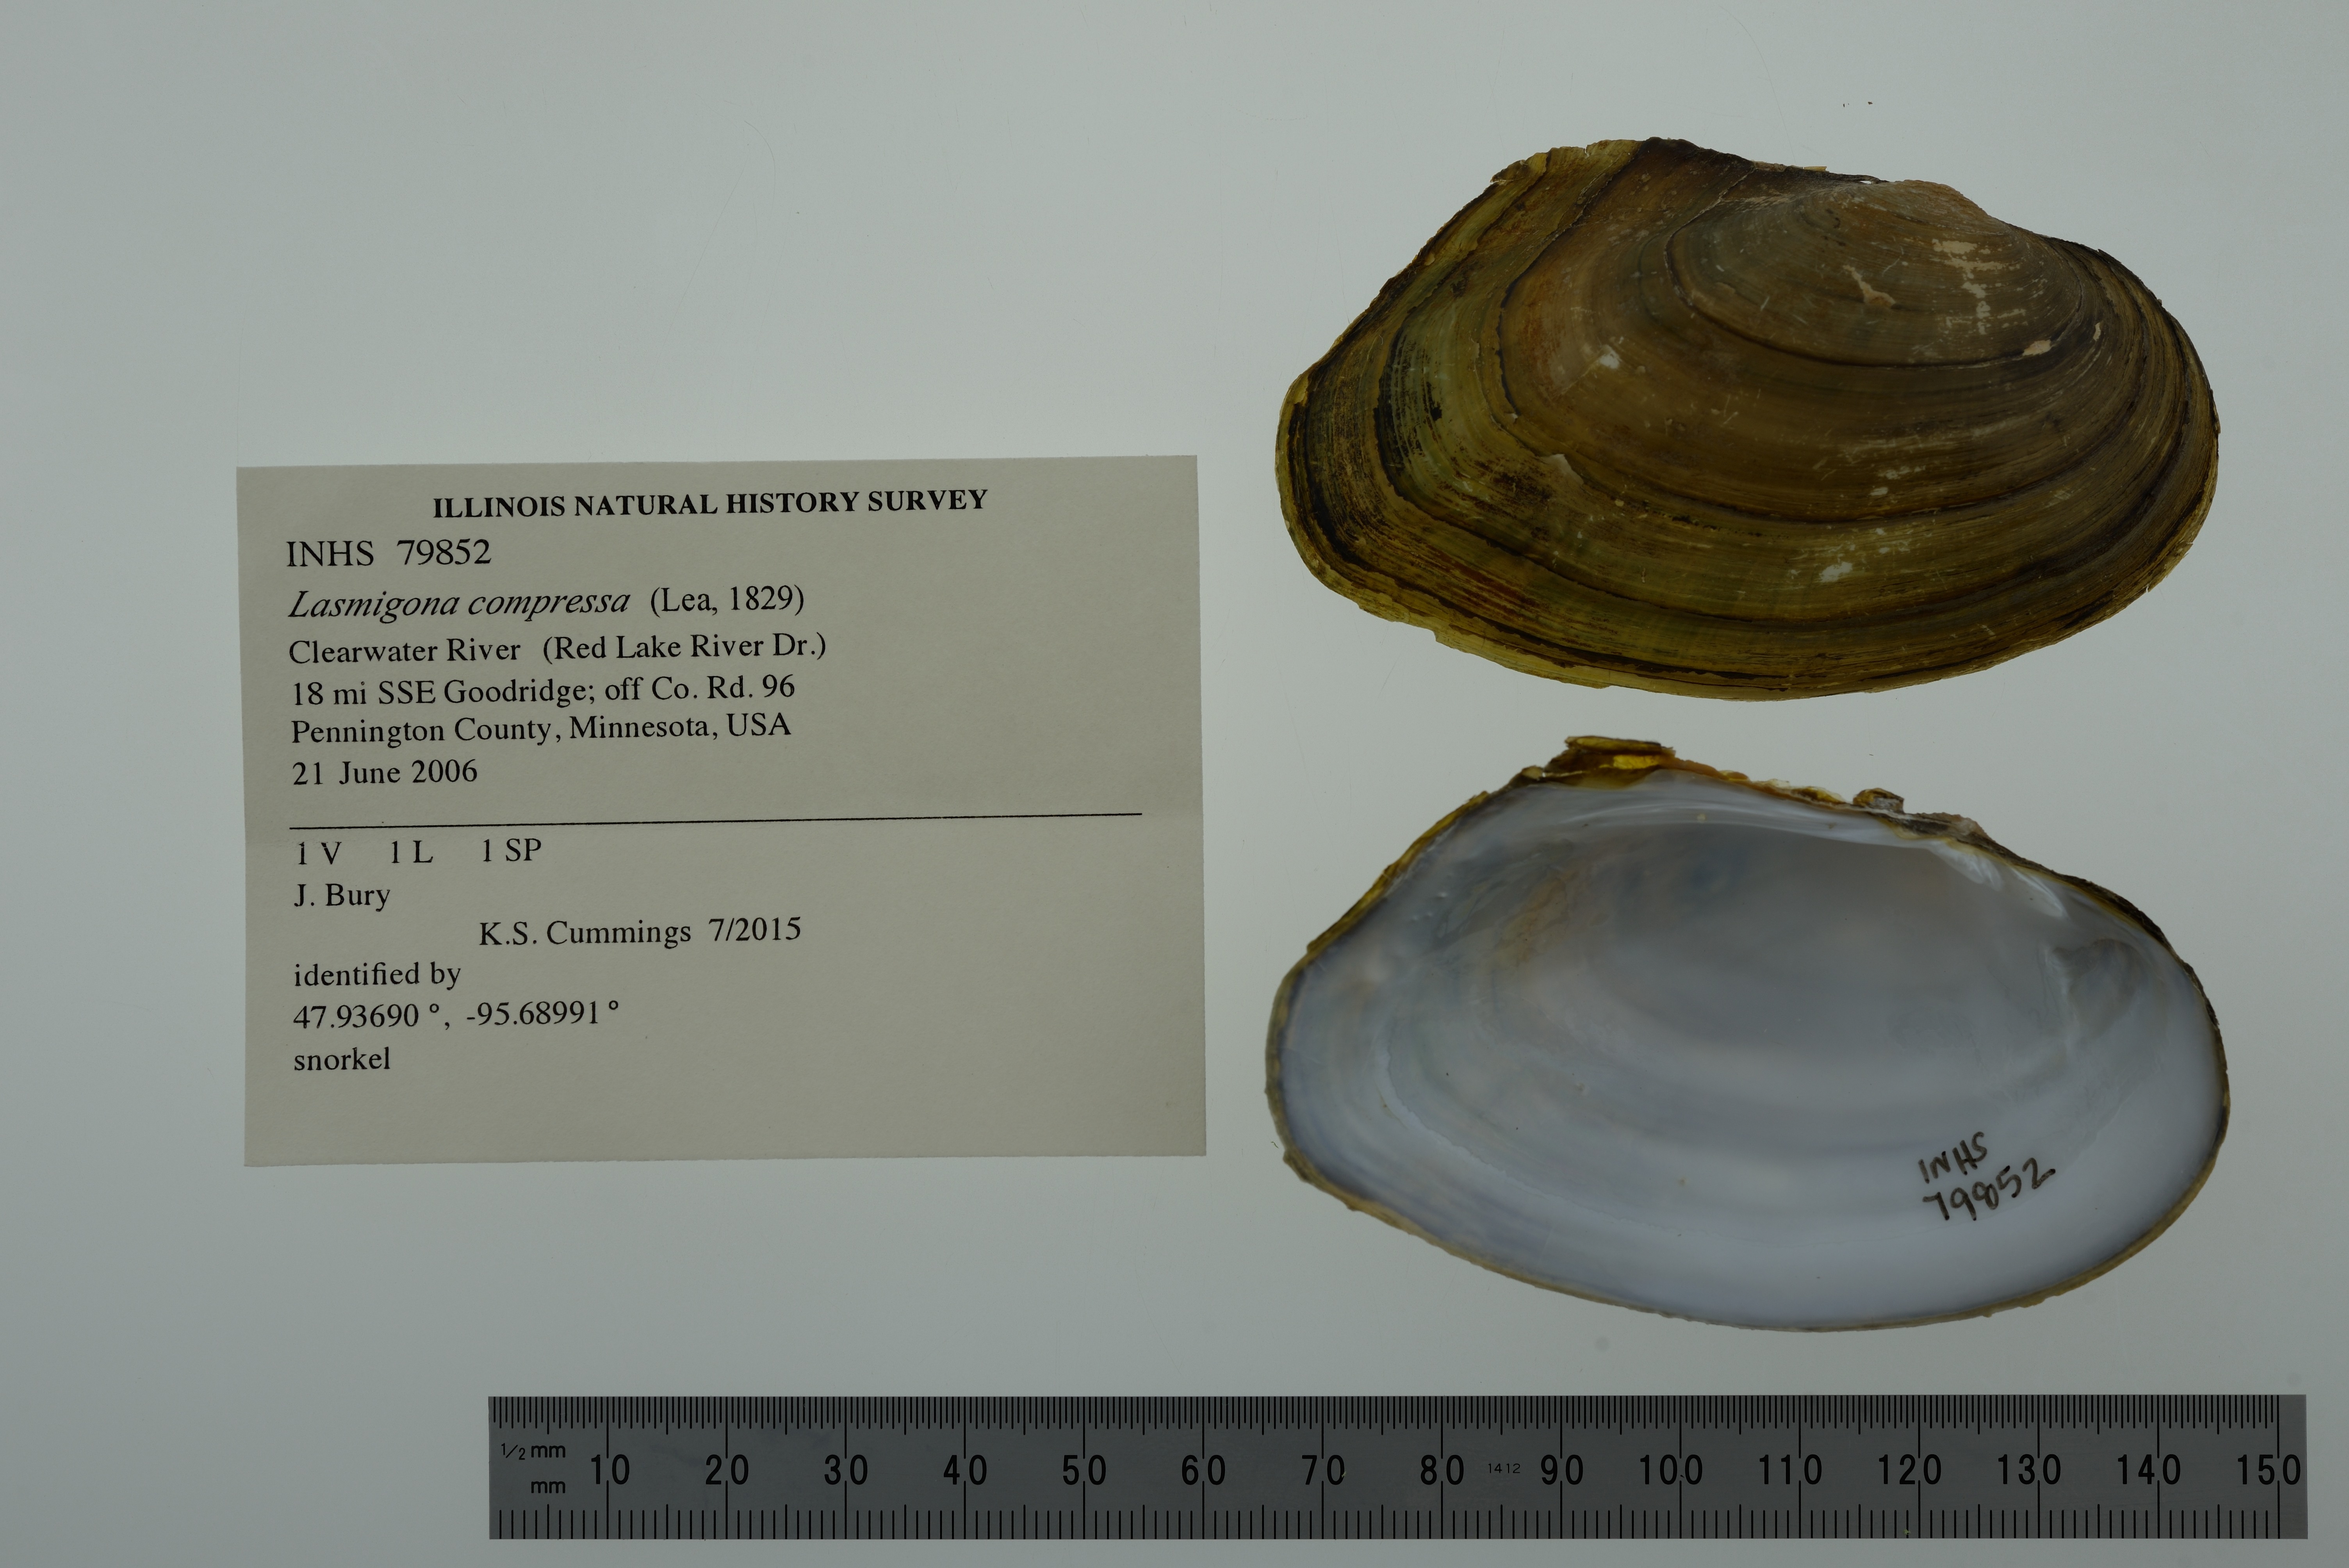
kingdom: Animalia
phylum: Mollusca
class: Bivalvia
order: Unionida
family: Unionidae
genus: Lasmigona
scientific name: Lasmigona compressa
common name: Creek heelsplitter
